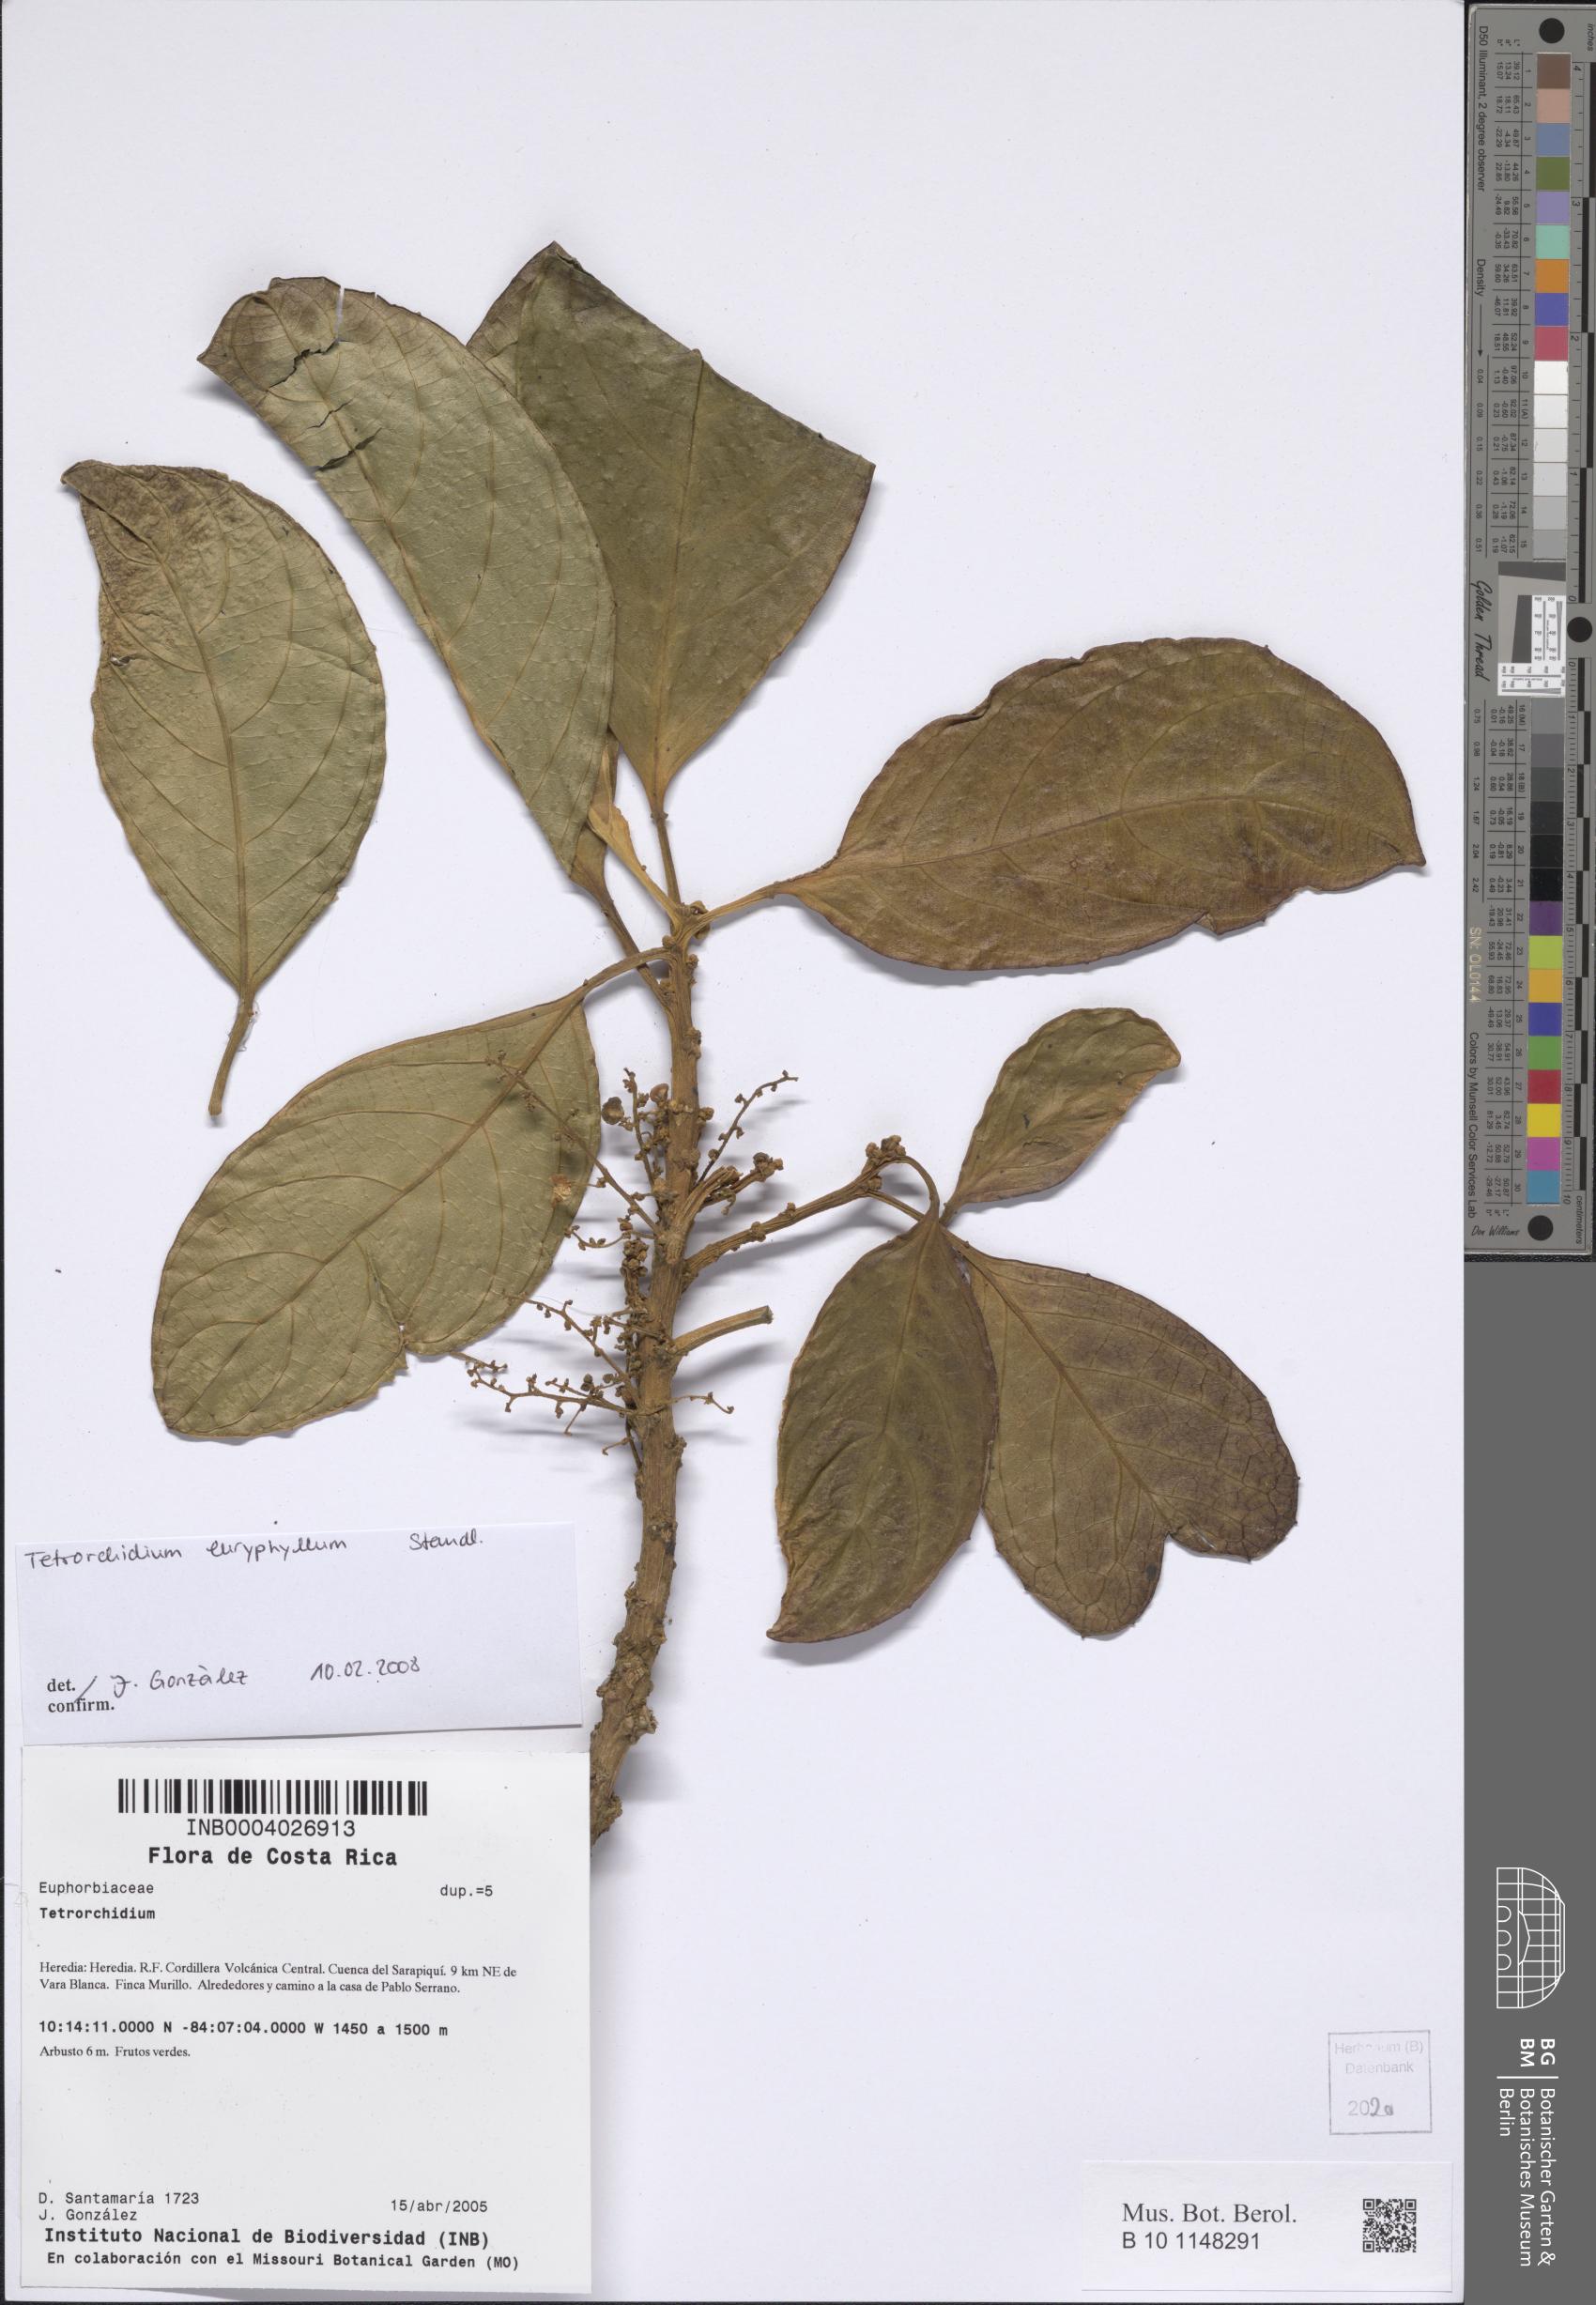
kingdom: Plantae
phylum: Tracheophyta
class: Magnoliopsida
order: Malpighiales
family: Euphorbiaceae
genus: Tetrorchidium
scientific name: Tetrorchidium euryphyllum
